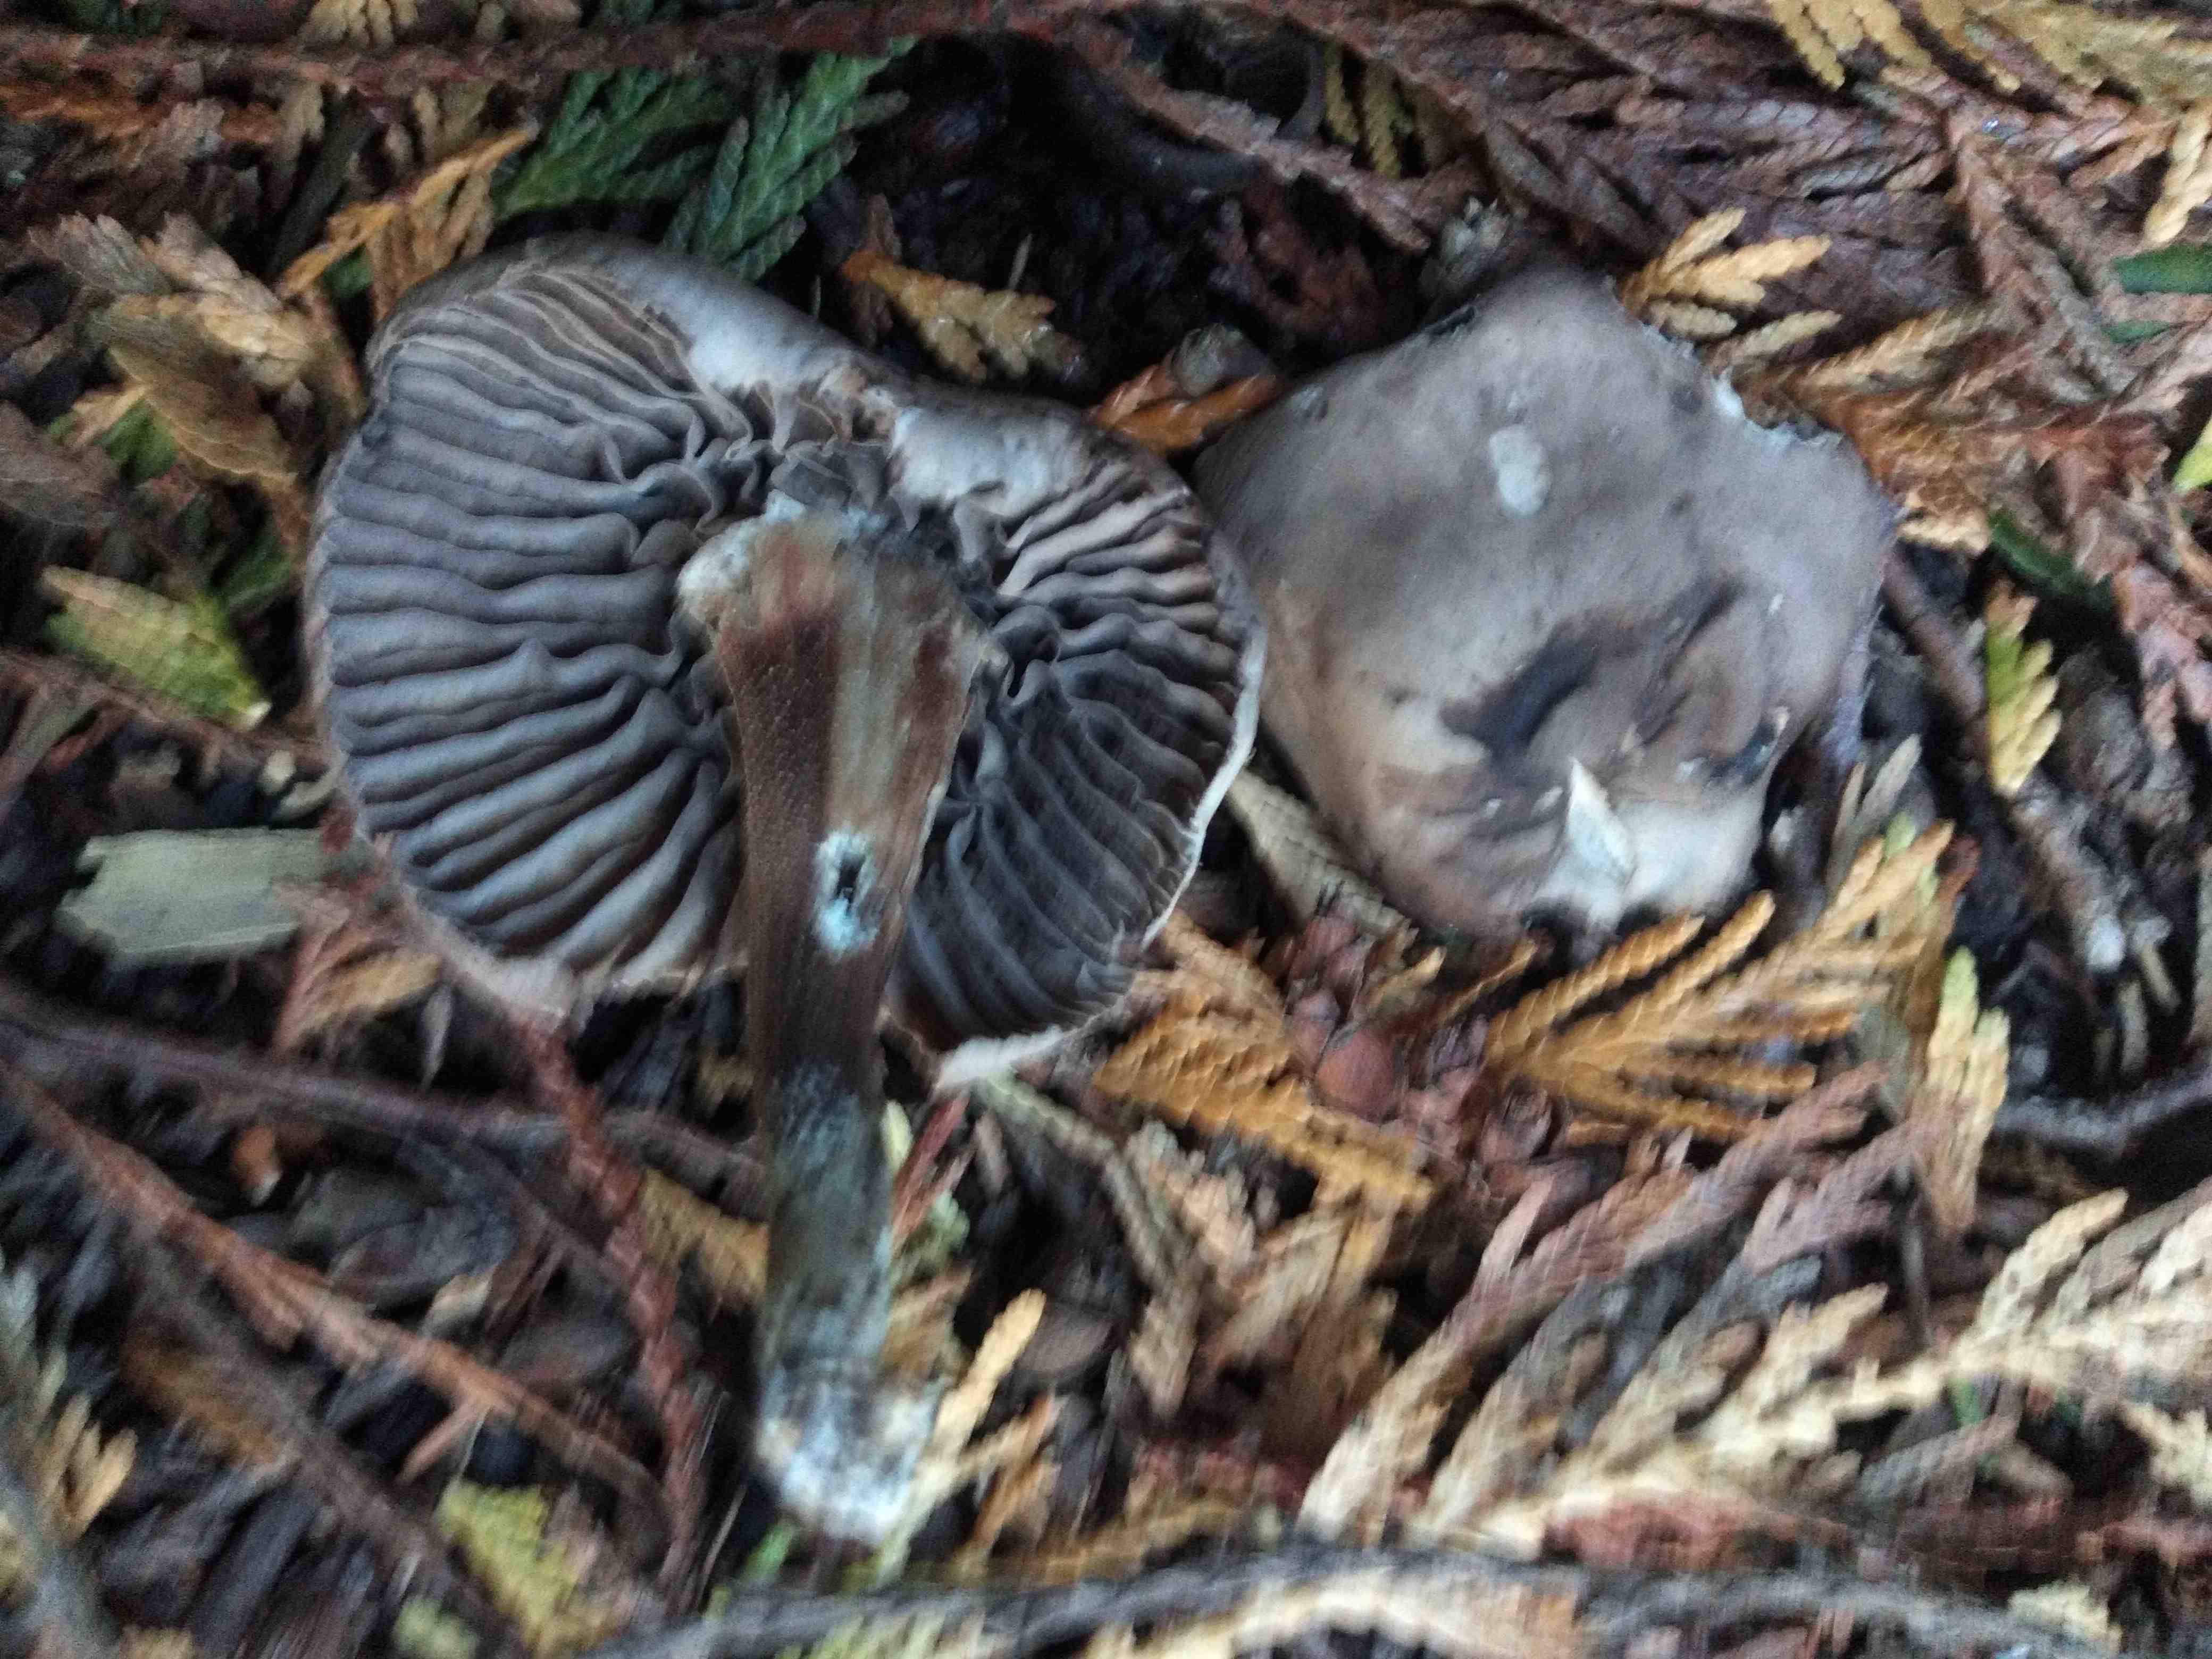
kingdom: Fungi
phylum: Basidiomycota
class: Agaricomycetes
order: Agaricales
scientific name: Agaricales
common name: champignonordenen
